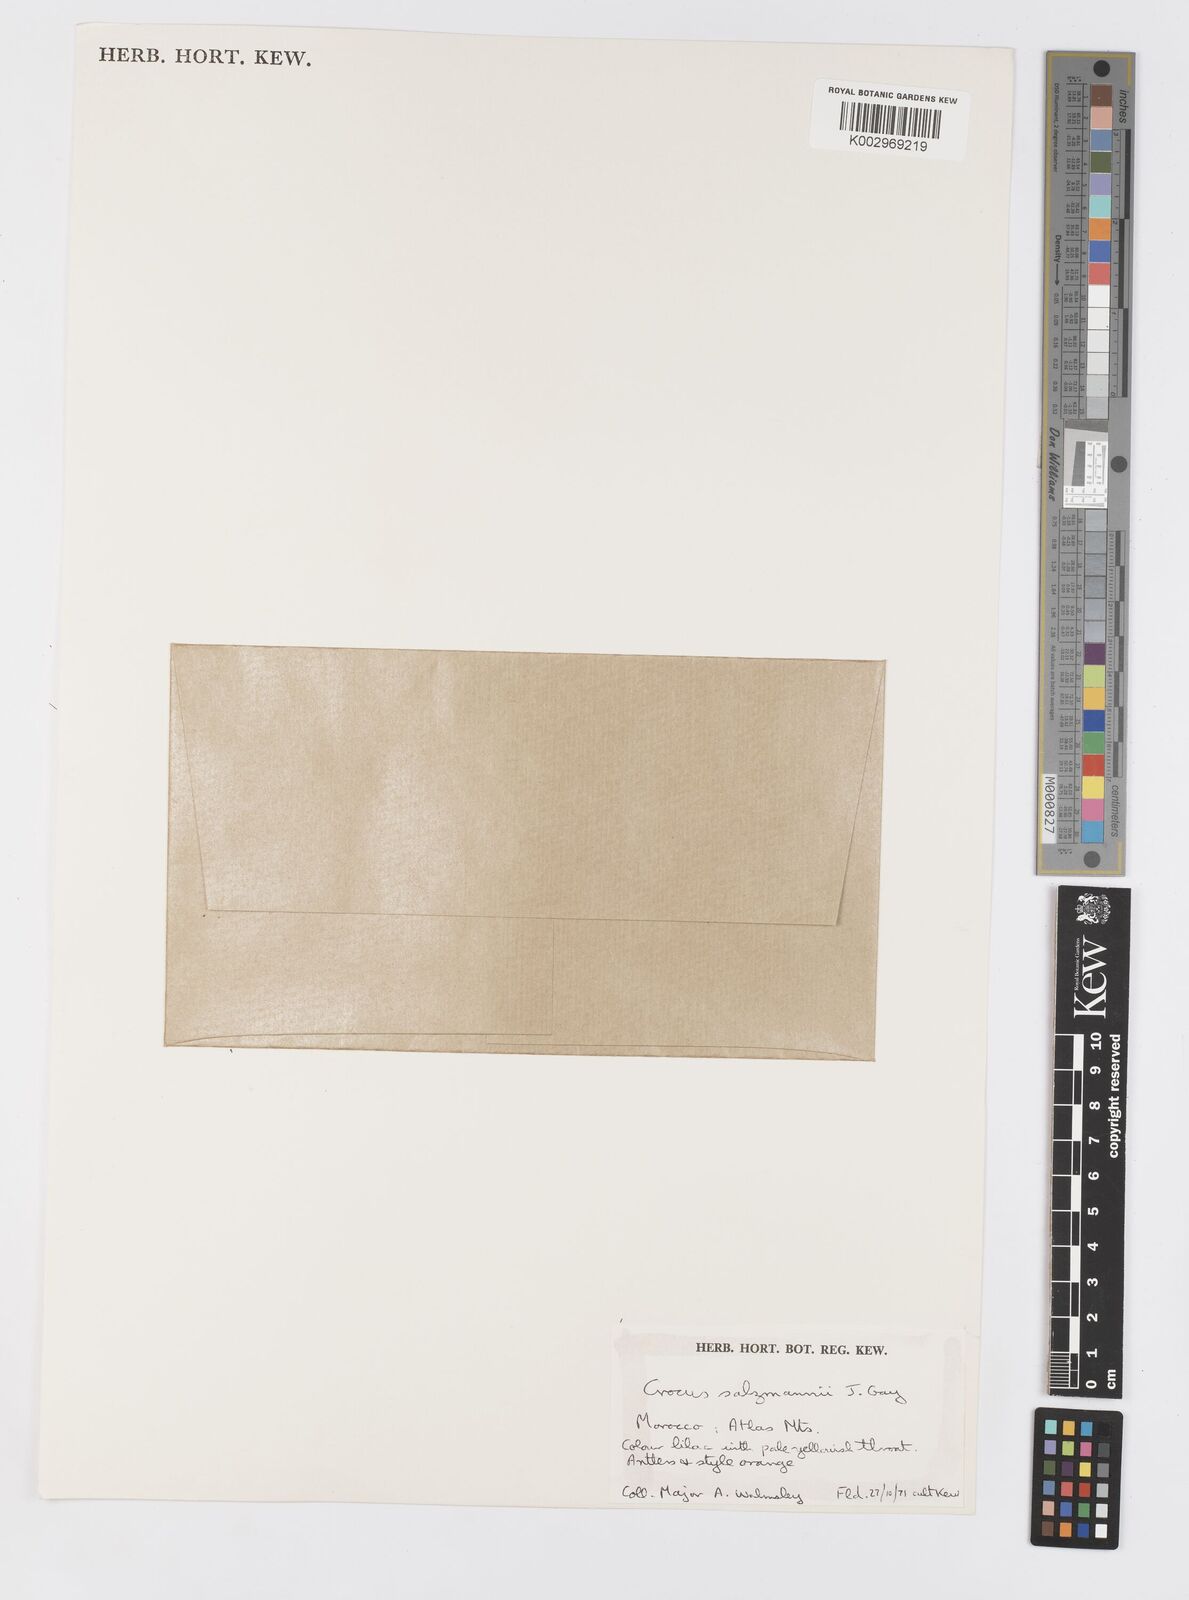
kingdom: Plantae
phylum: Tracheophyta
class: Liliopsida
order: Asparagales
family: Iridaceae
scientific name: Iridaceae
